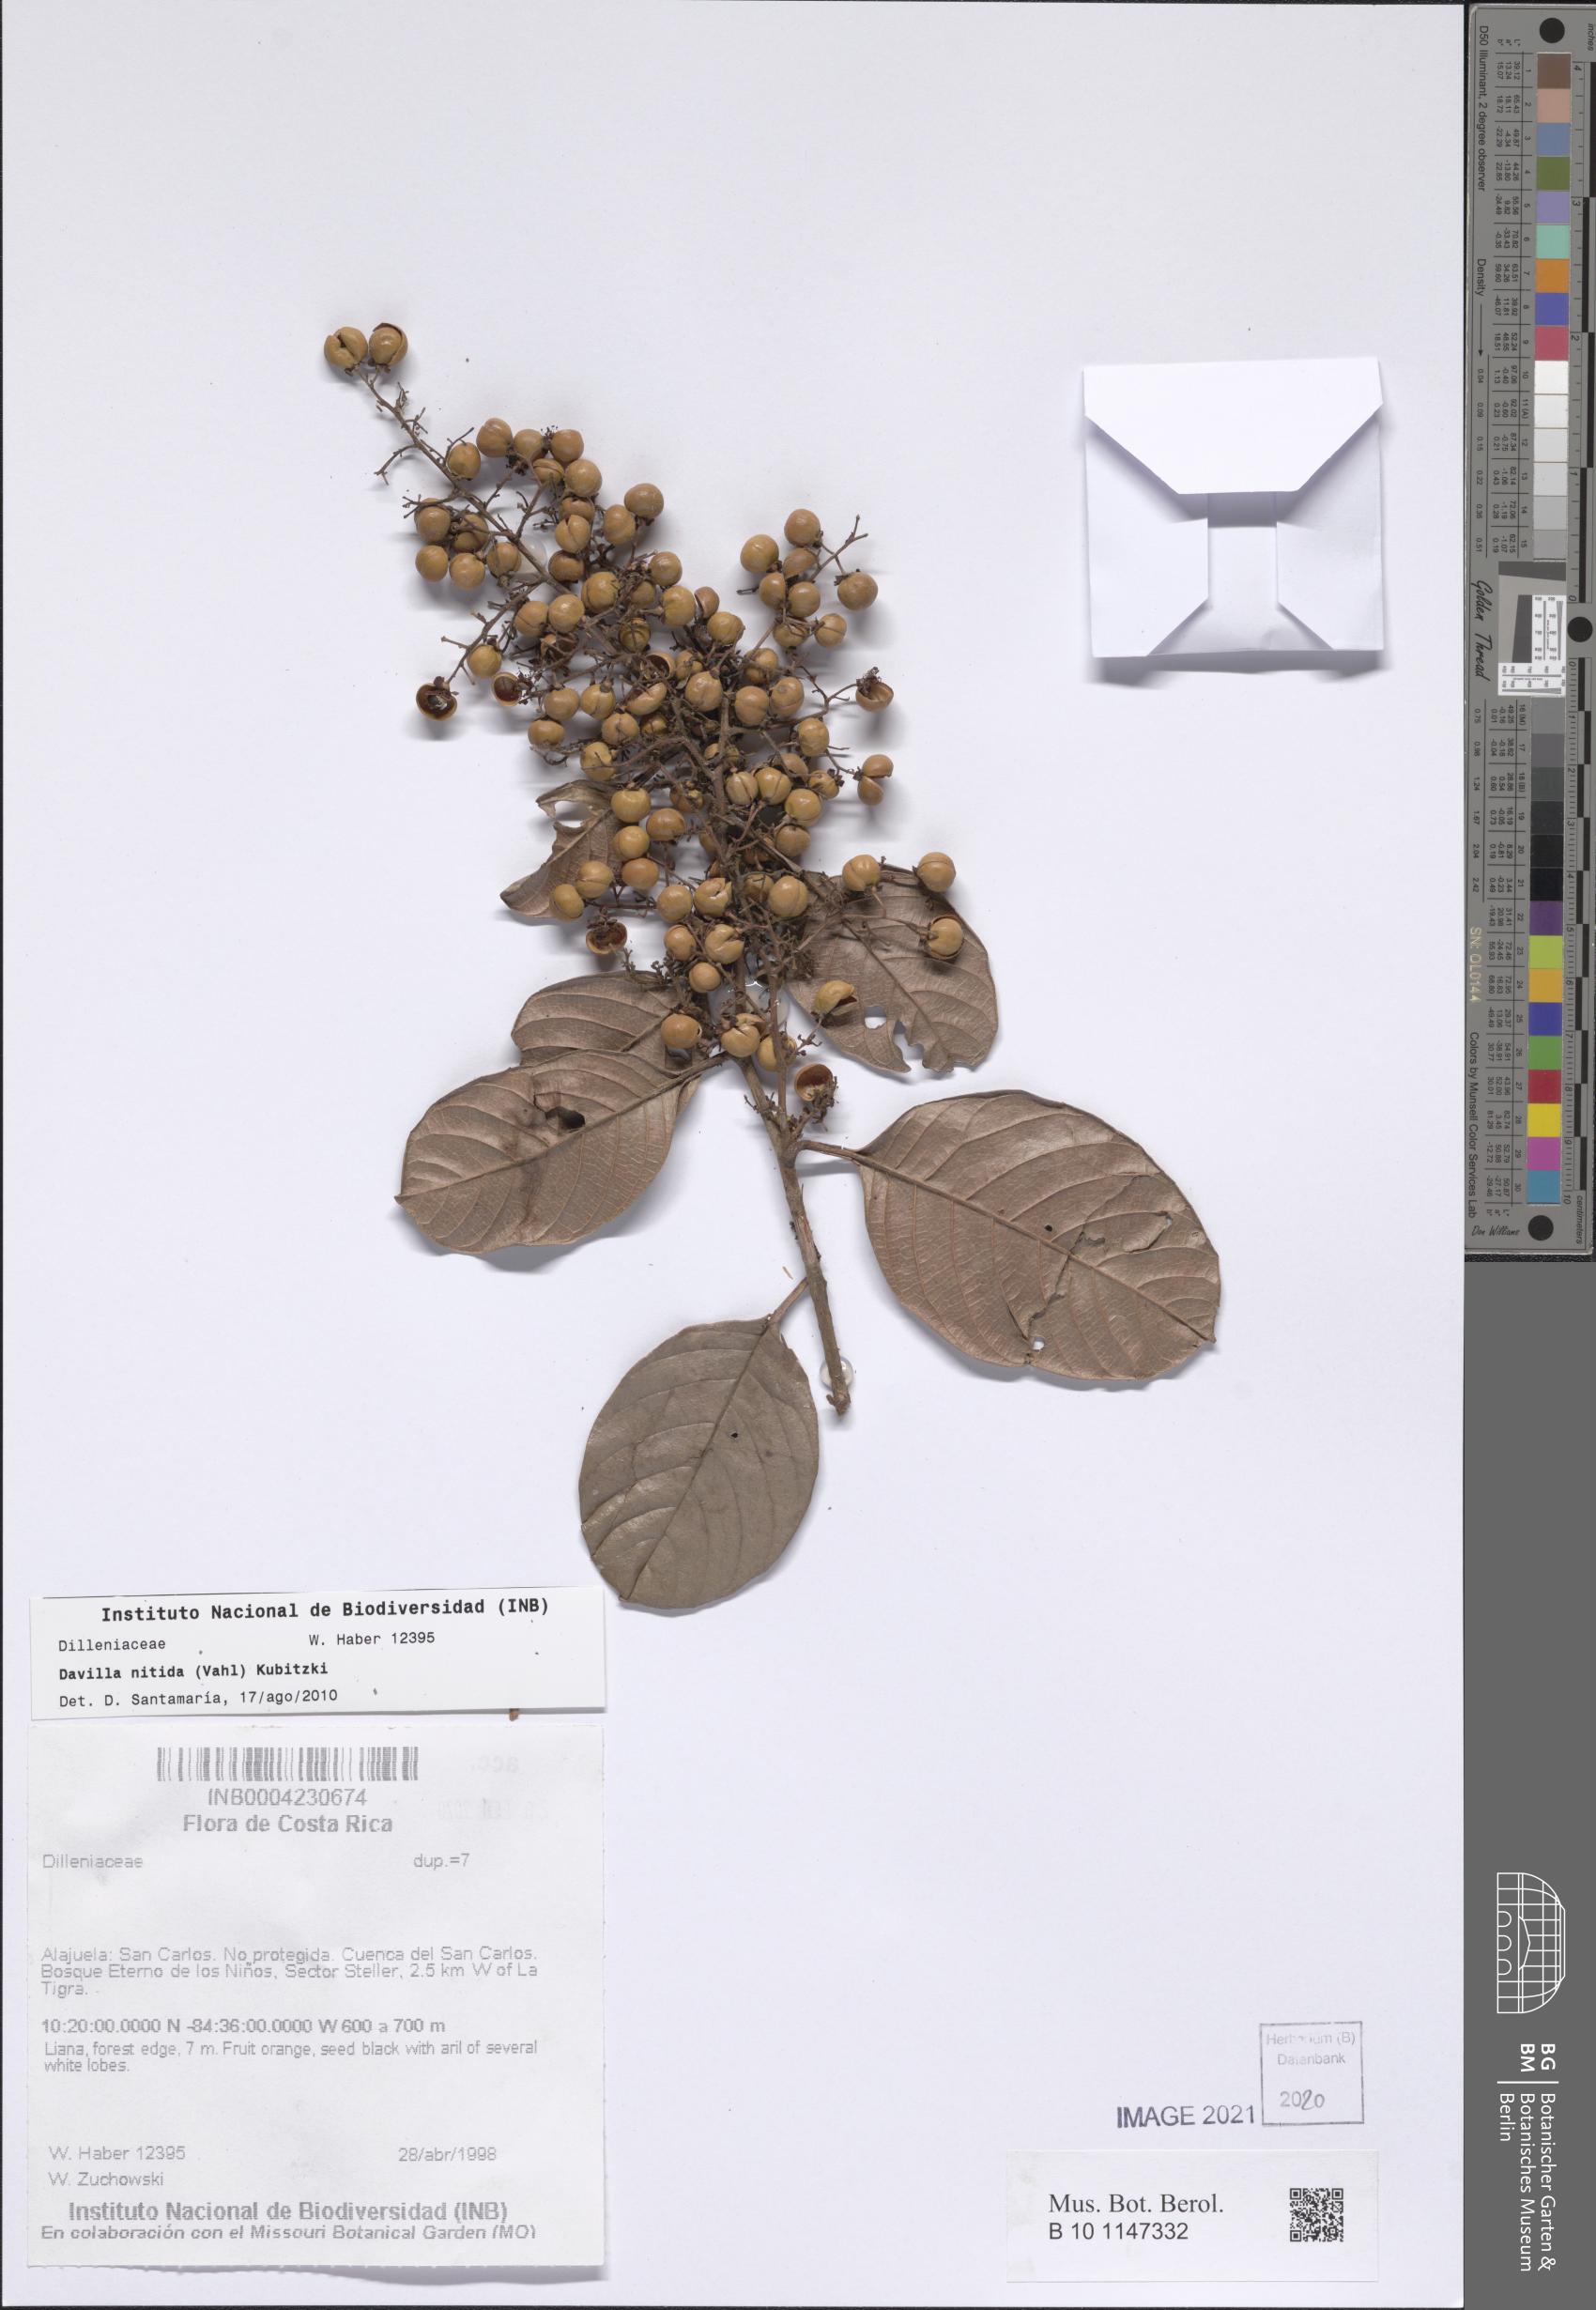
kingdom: Plantae
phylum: Tracheophyta
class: Magnoliopsida
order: Dilleniales
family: Dilleniaceae
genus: Davilla
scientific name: Davilla nitida
